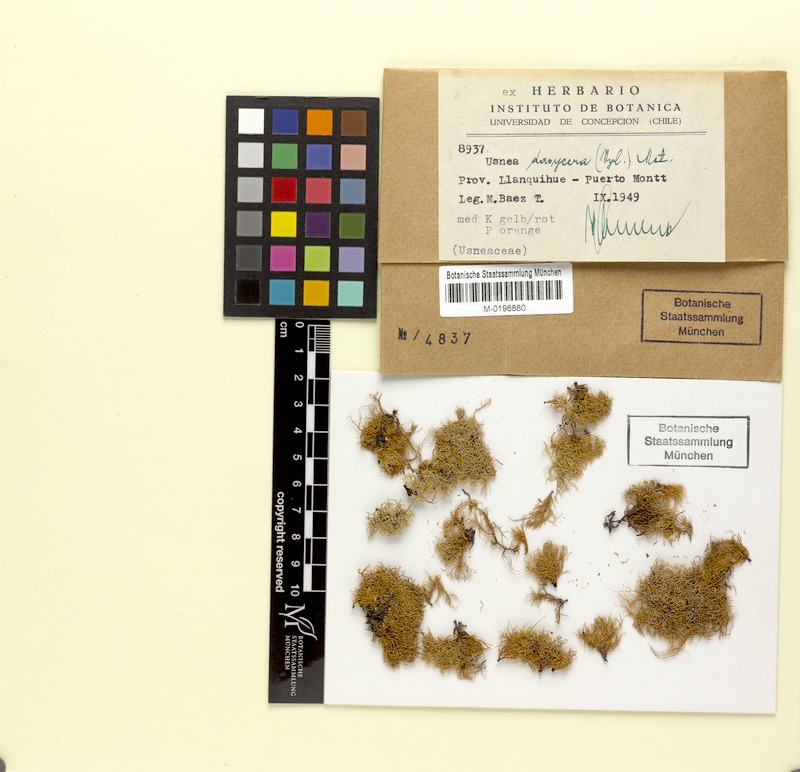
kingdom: Fungi
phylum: Ascomycota
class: Lecanoromycetes
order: Lecanorales
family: Parmeliaceae
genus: Usnea
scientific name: Usnea dasycera
